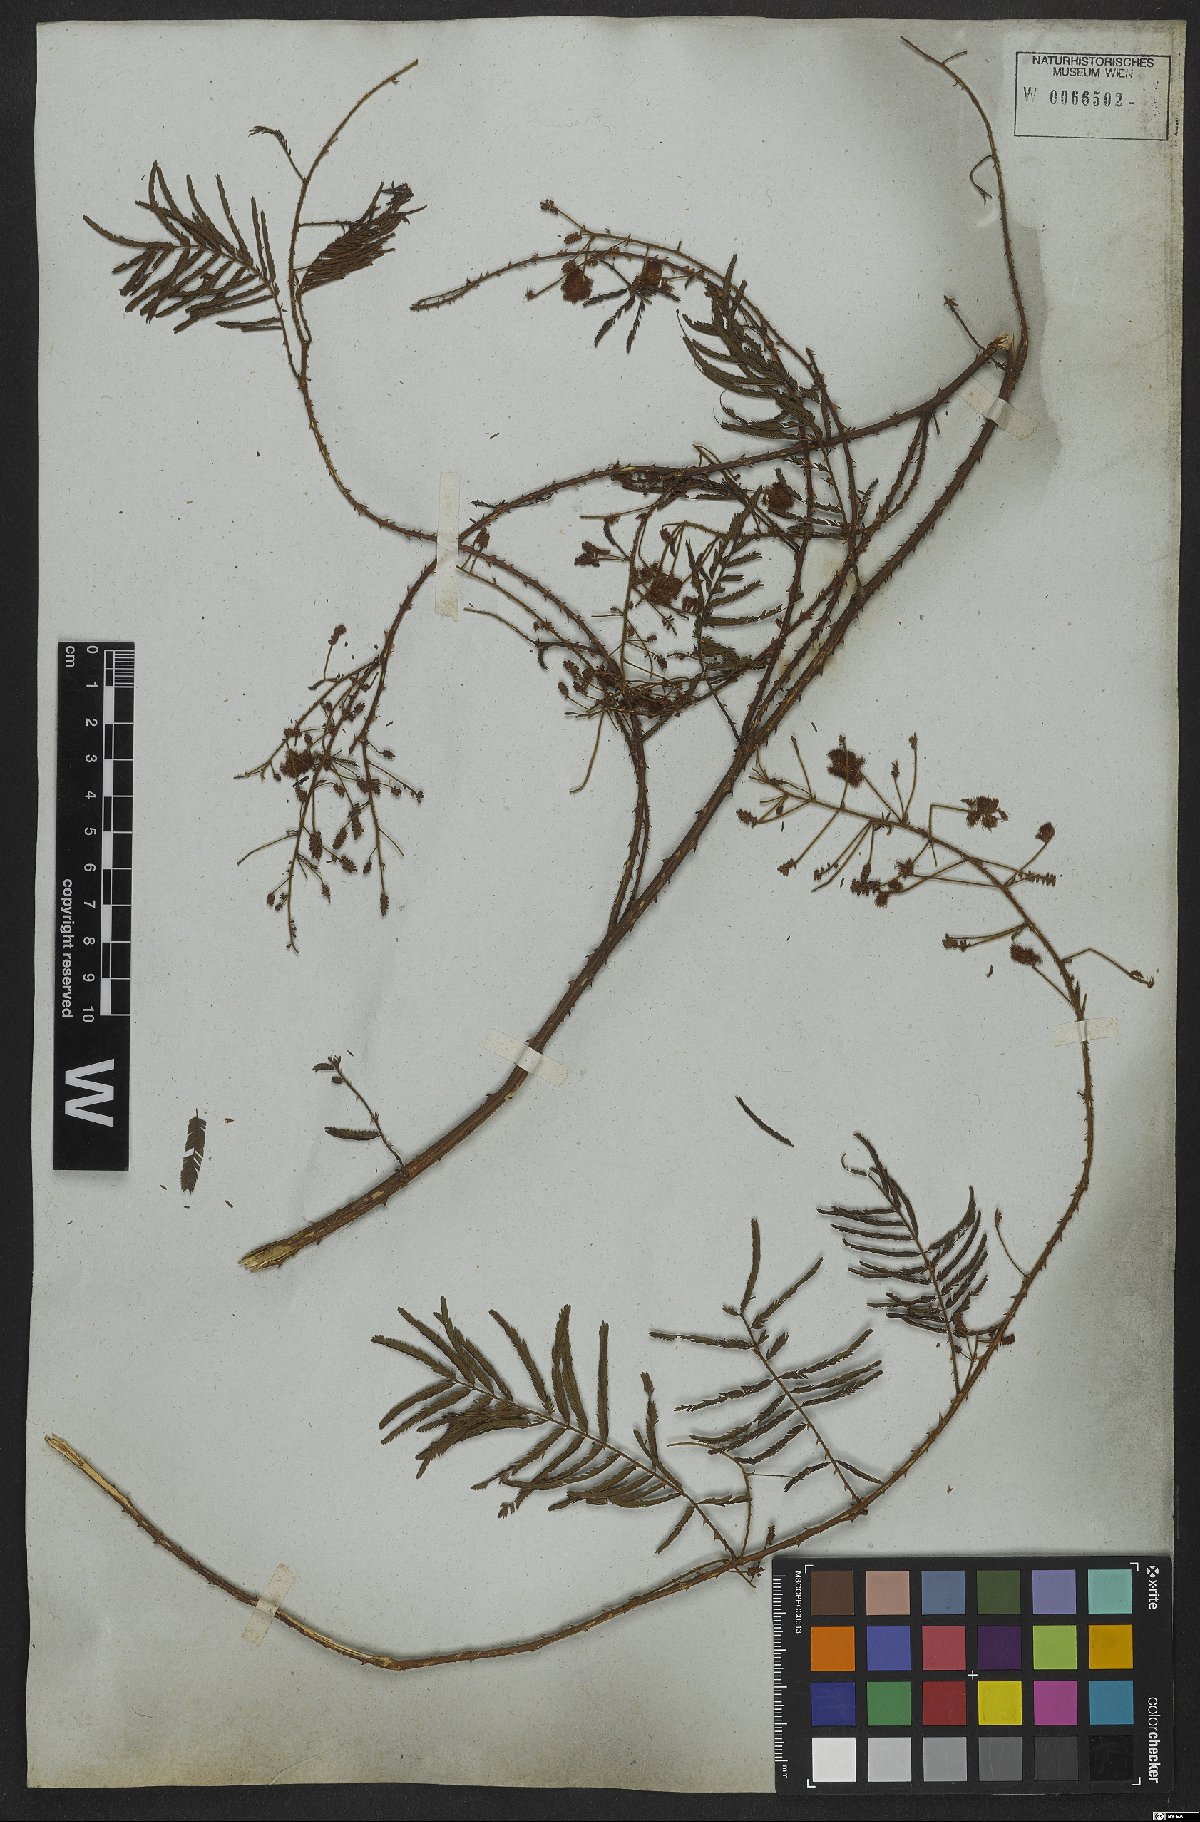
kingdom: Plantae
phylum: Tracheophyta
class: Magnoliopsida
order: Fabales
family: Fabaceae
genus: Senegalia
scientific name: Senegalia lowei
